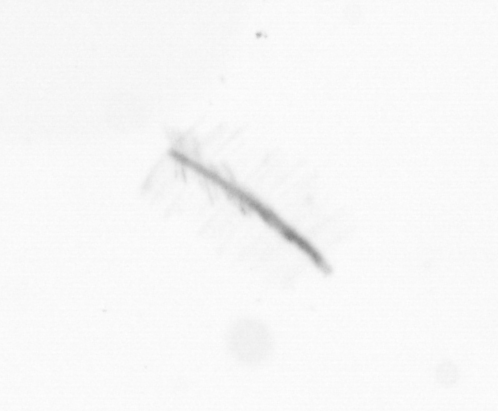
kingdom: Chromista
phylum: Ochrophyta
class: Bacillariophyceae
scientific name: Bacillariophyceae
